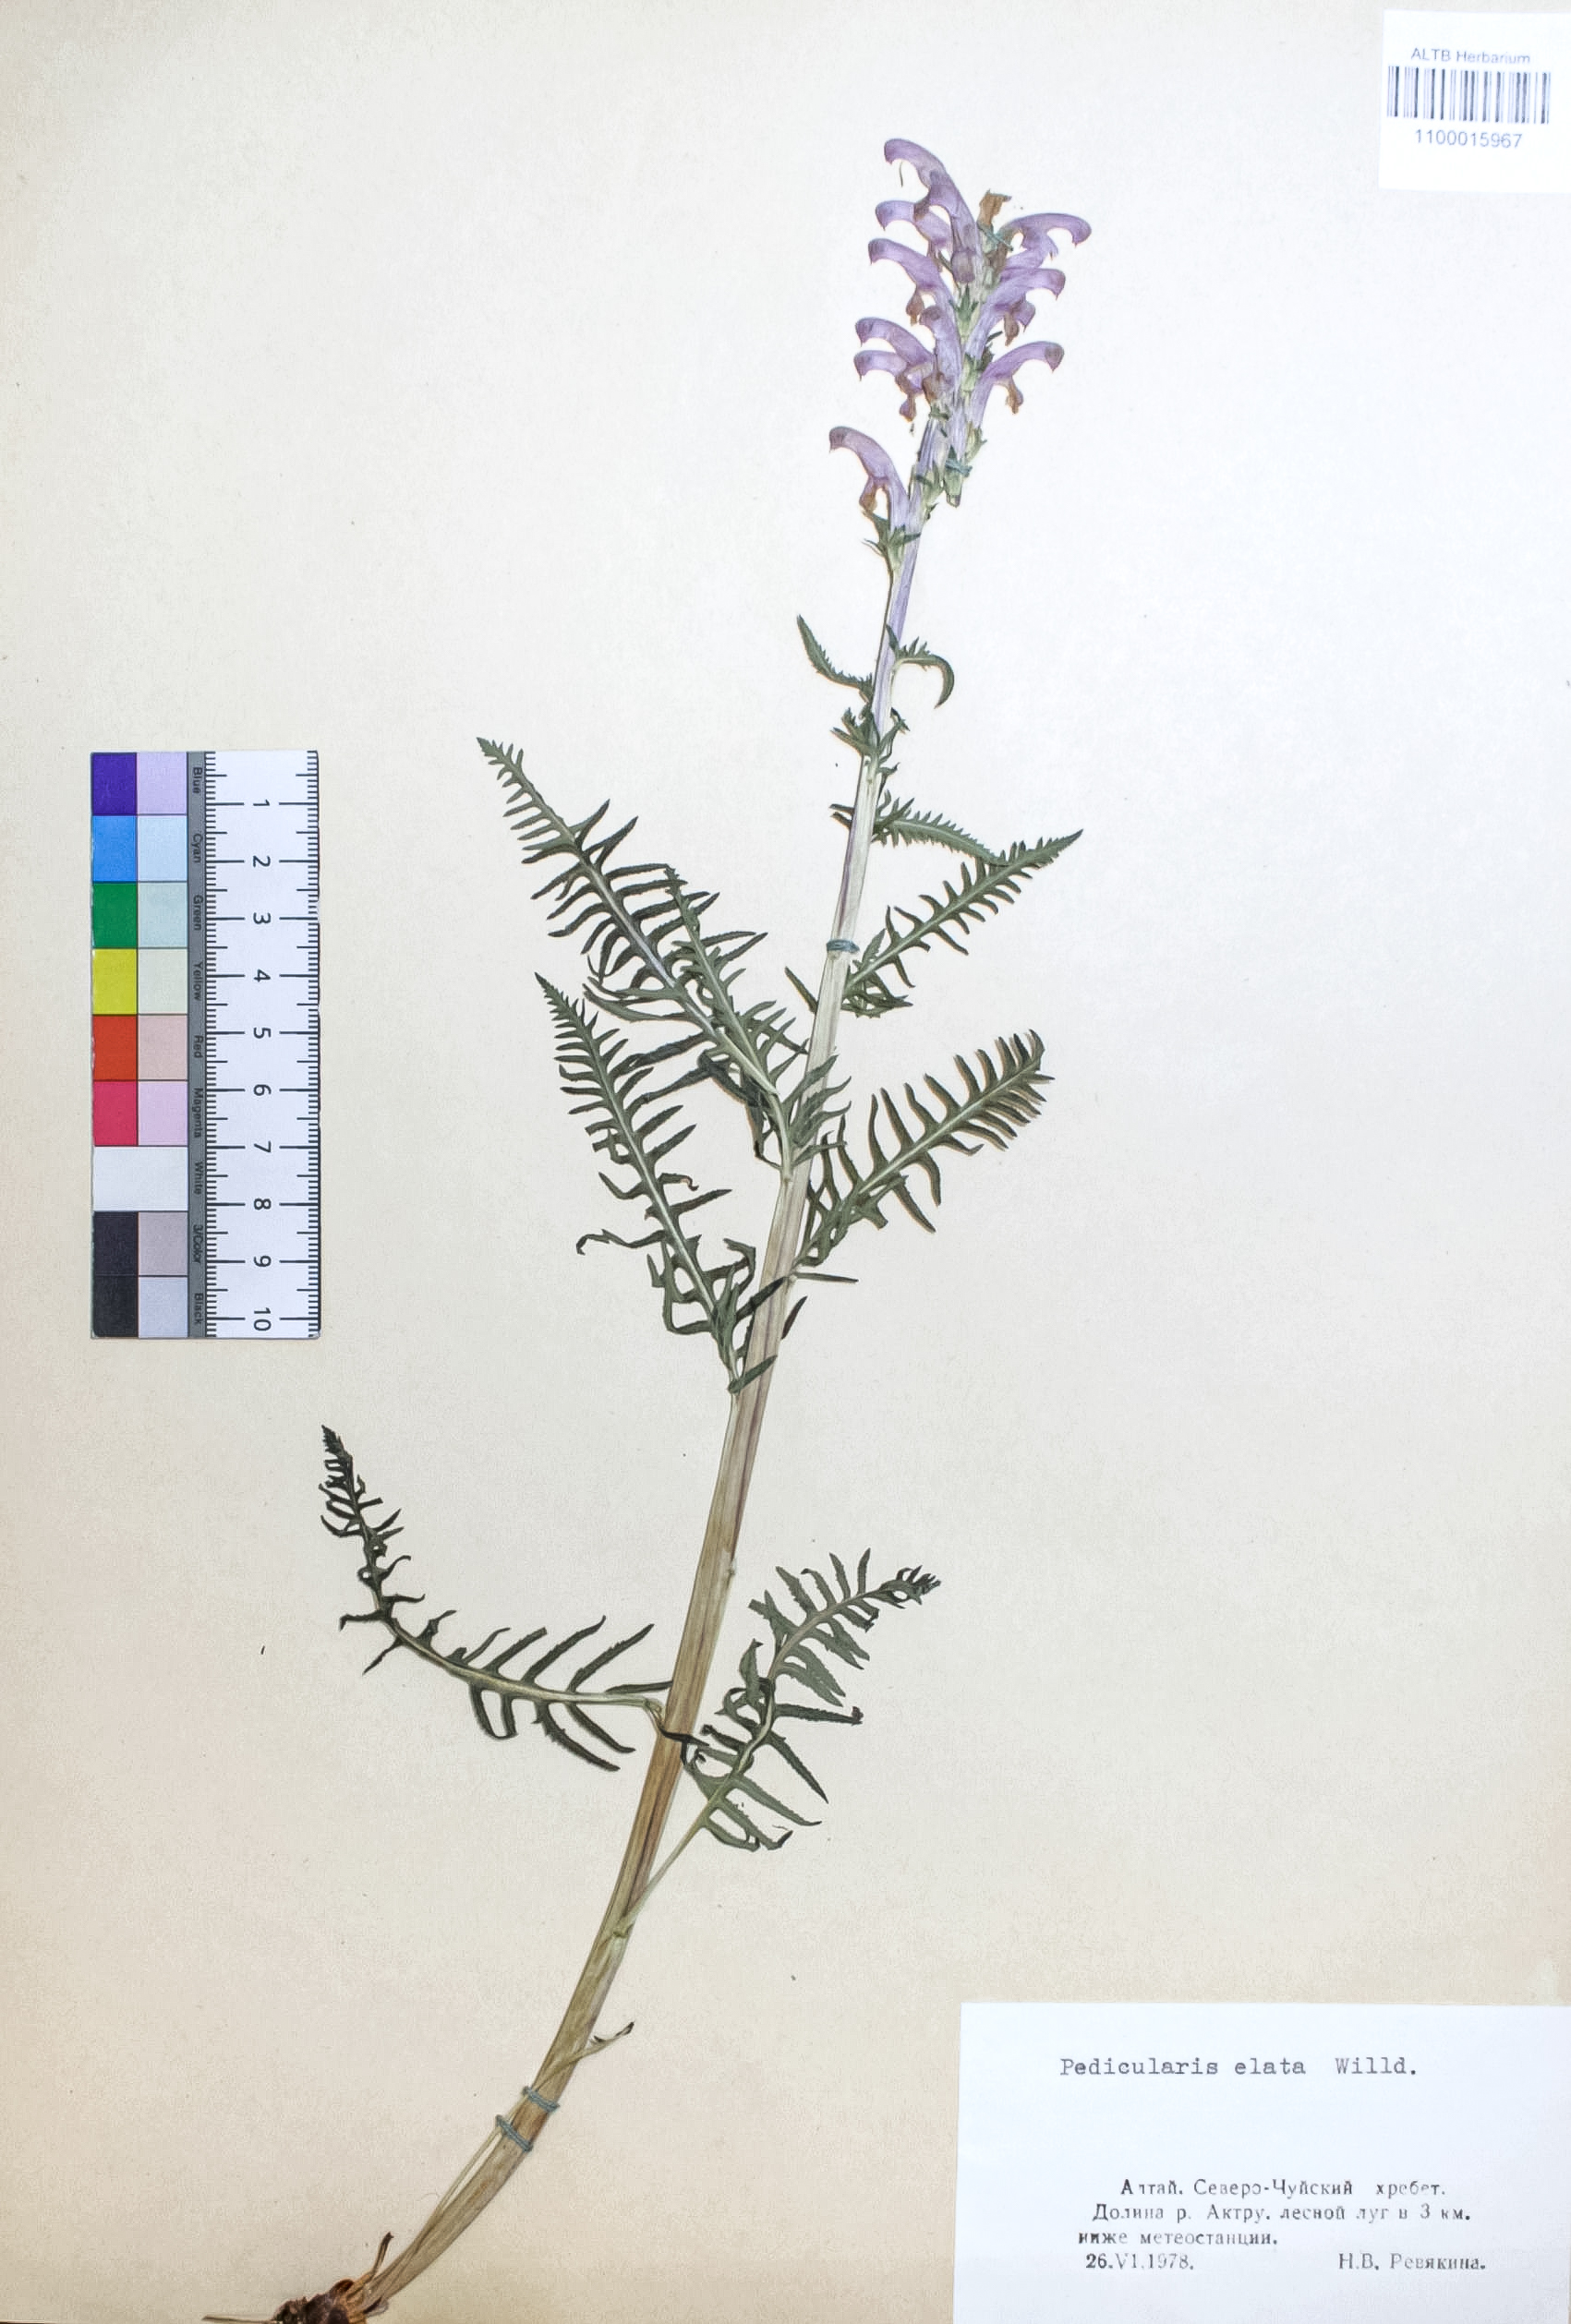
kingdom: Plantae
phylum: Tracheophyta
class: Magnoliopsida
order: Lamiales
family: Orobanchaceae
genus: Pedicularis
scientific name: Pedicularis elata
